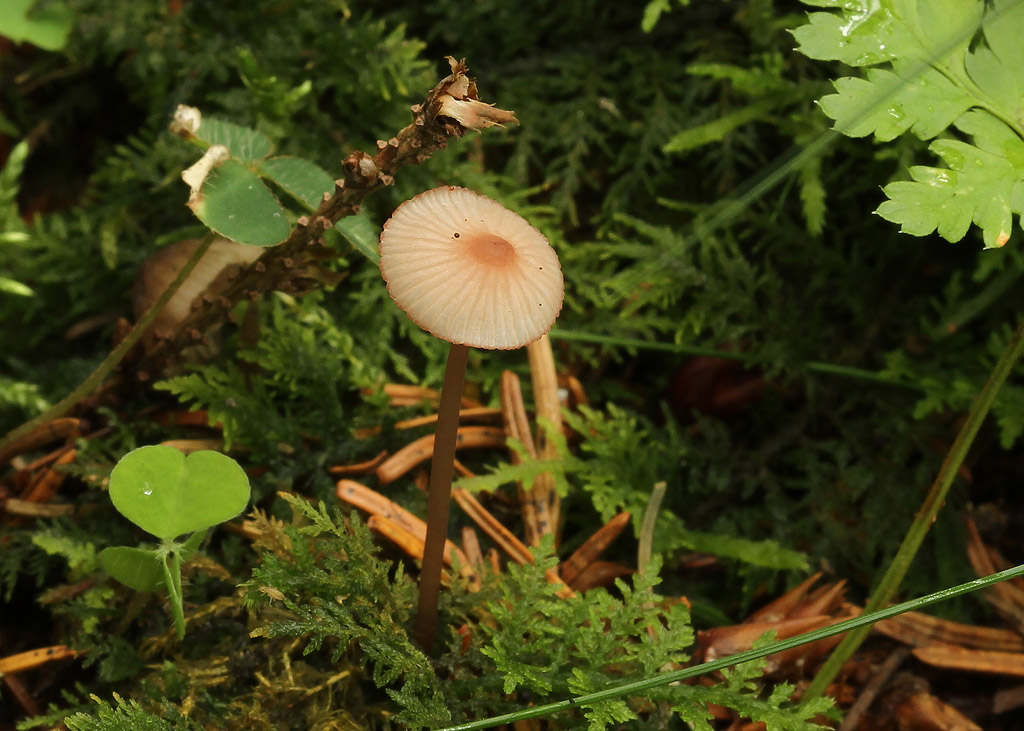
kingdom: Fungi
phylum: Basidiomycota
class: Agaricomycetes
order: Agaricales
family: Mycenaceae
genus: Mycena
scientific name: Mycena sanguinolenta
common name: rødmælket huesvamp
